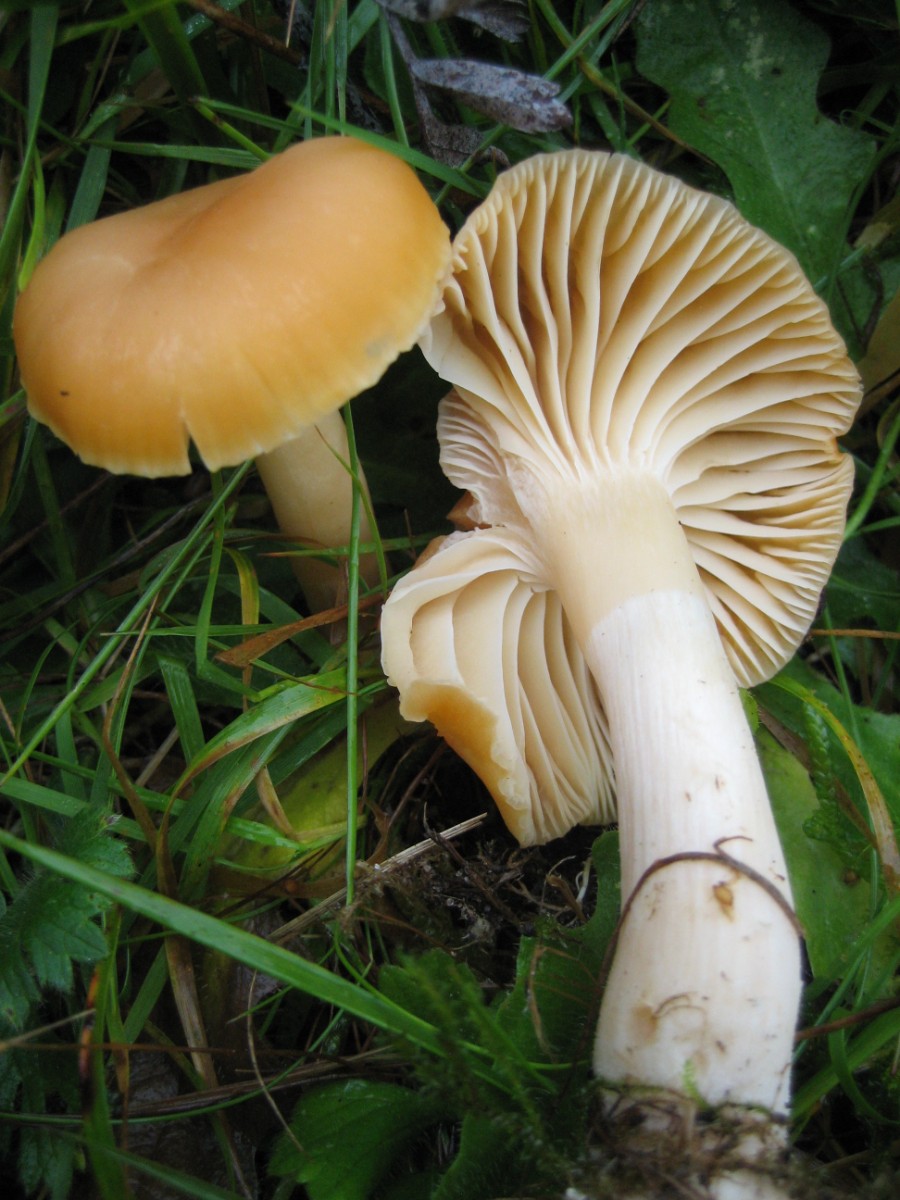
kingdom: Fungi
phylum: Basidiomycota
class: Agaricomycetes
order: Agaricales
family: Hygrophoraceae
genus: Cuphophyllus
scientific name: Cuphophyllus pratensis
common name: eng-vokshat
